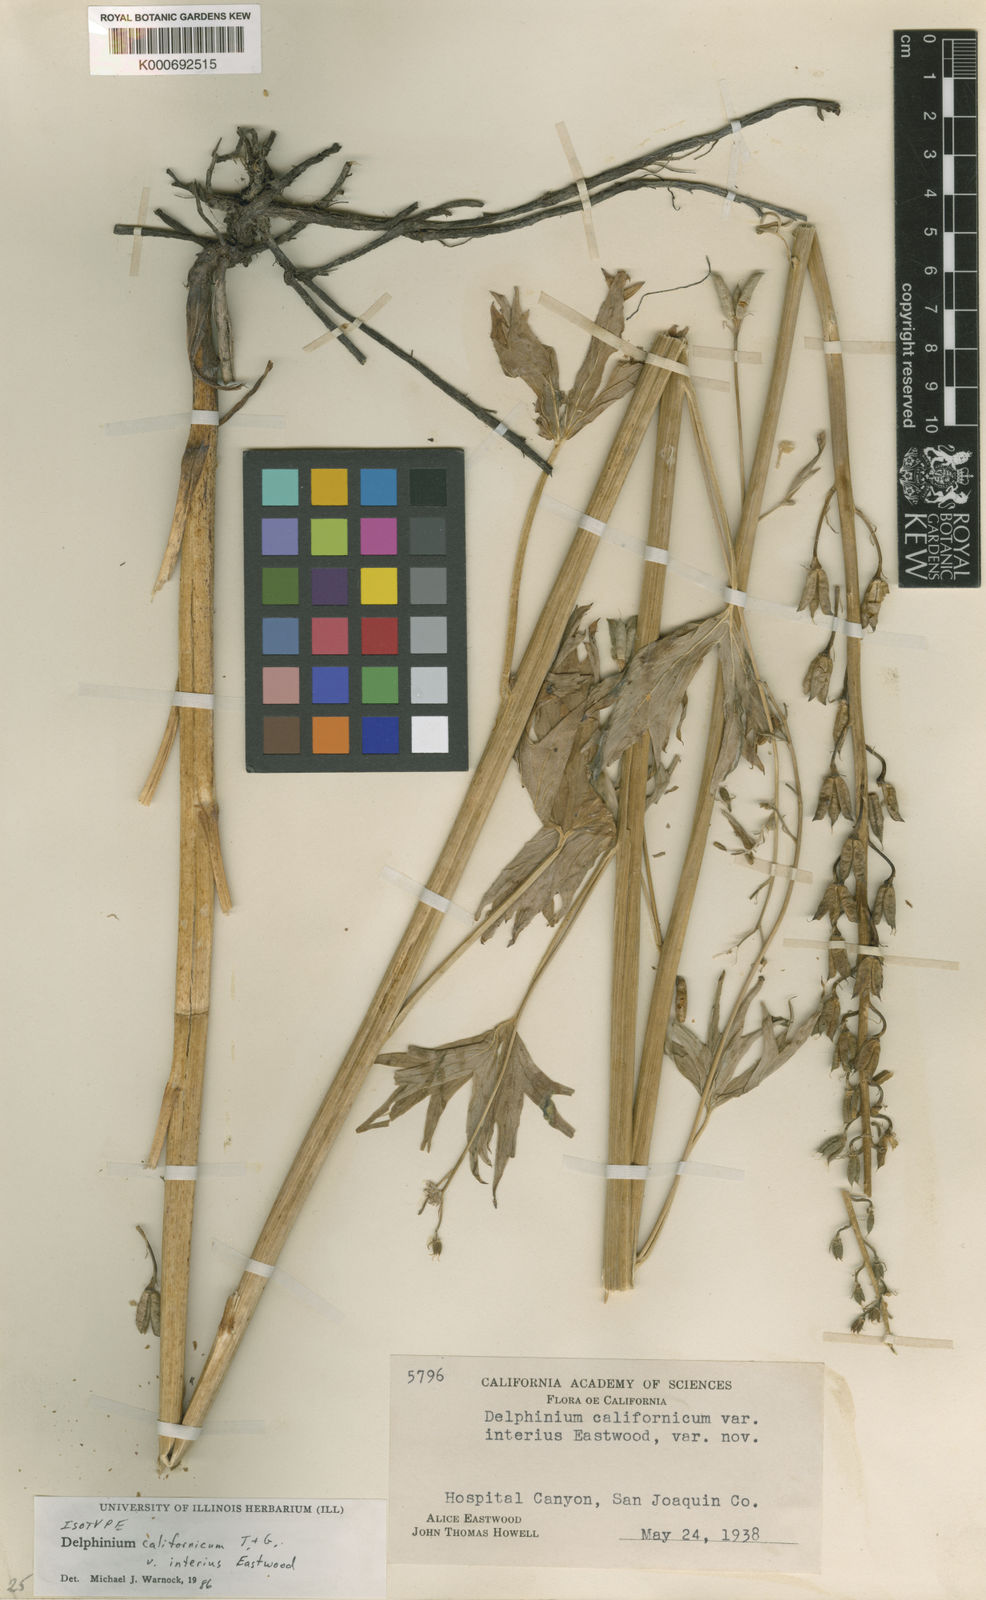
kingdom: Plantae
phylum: Tracheophyta
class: Magnoliopsida
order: Ranunculales
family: Ranunculaceae
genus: Delphinium
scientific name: Delphinium californicum
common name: California larkspur
